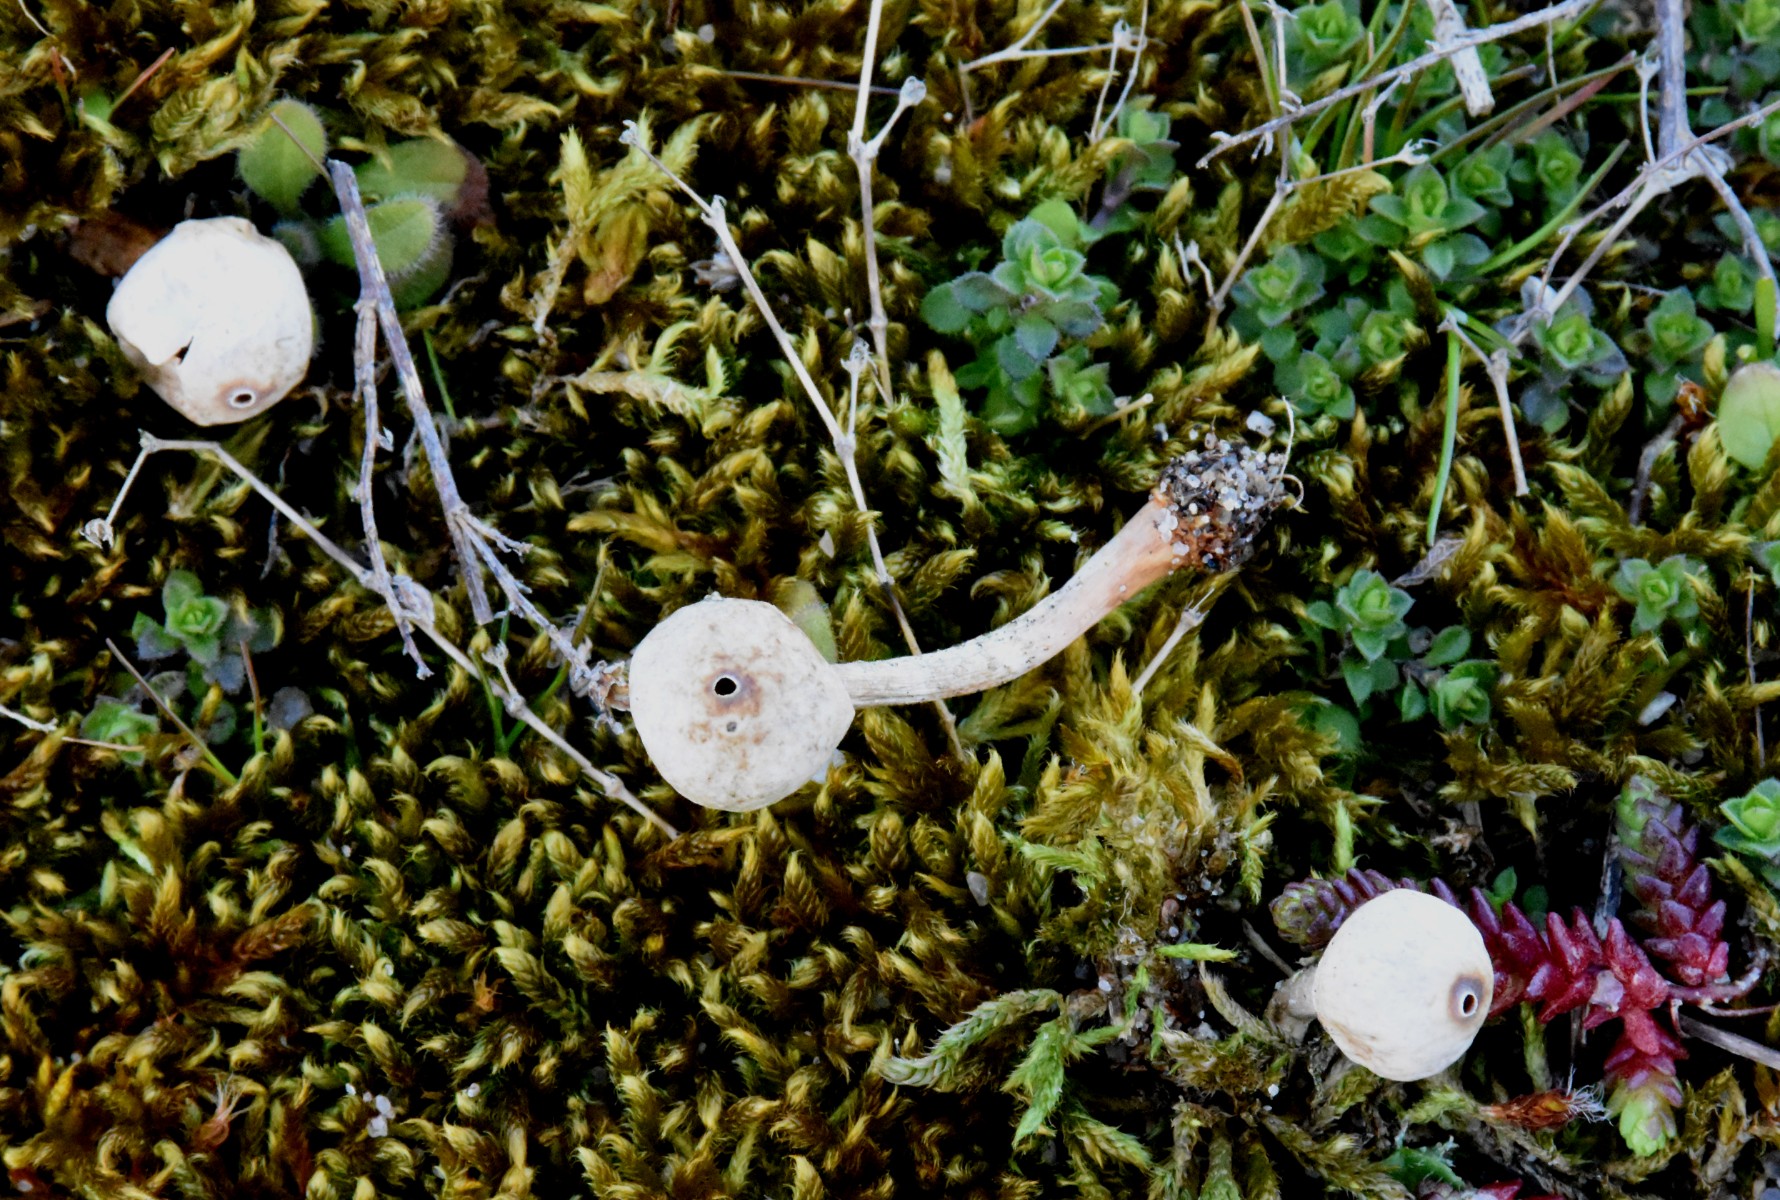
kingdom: Fungi
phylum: Basidiomycota
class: Agaricomycetes
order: Agaricales
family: Agaricaceae
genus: Tulostoma
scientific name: Tulostoma brumale
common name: vinter-stilkbovist
